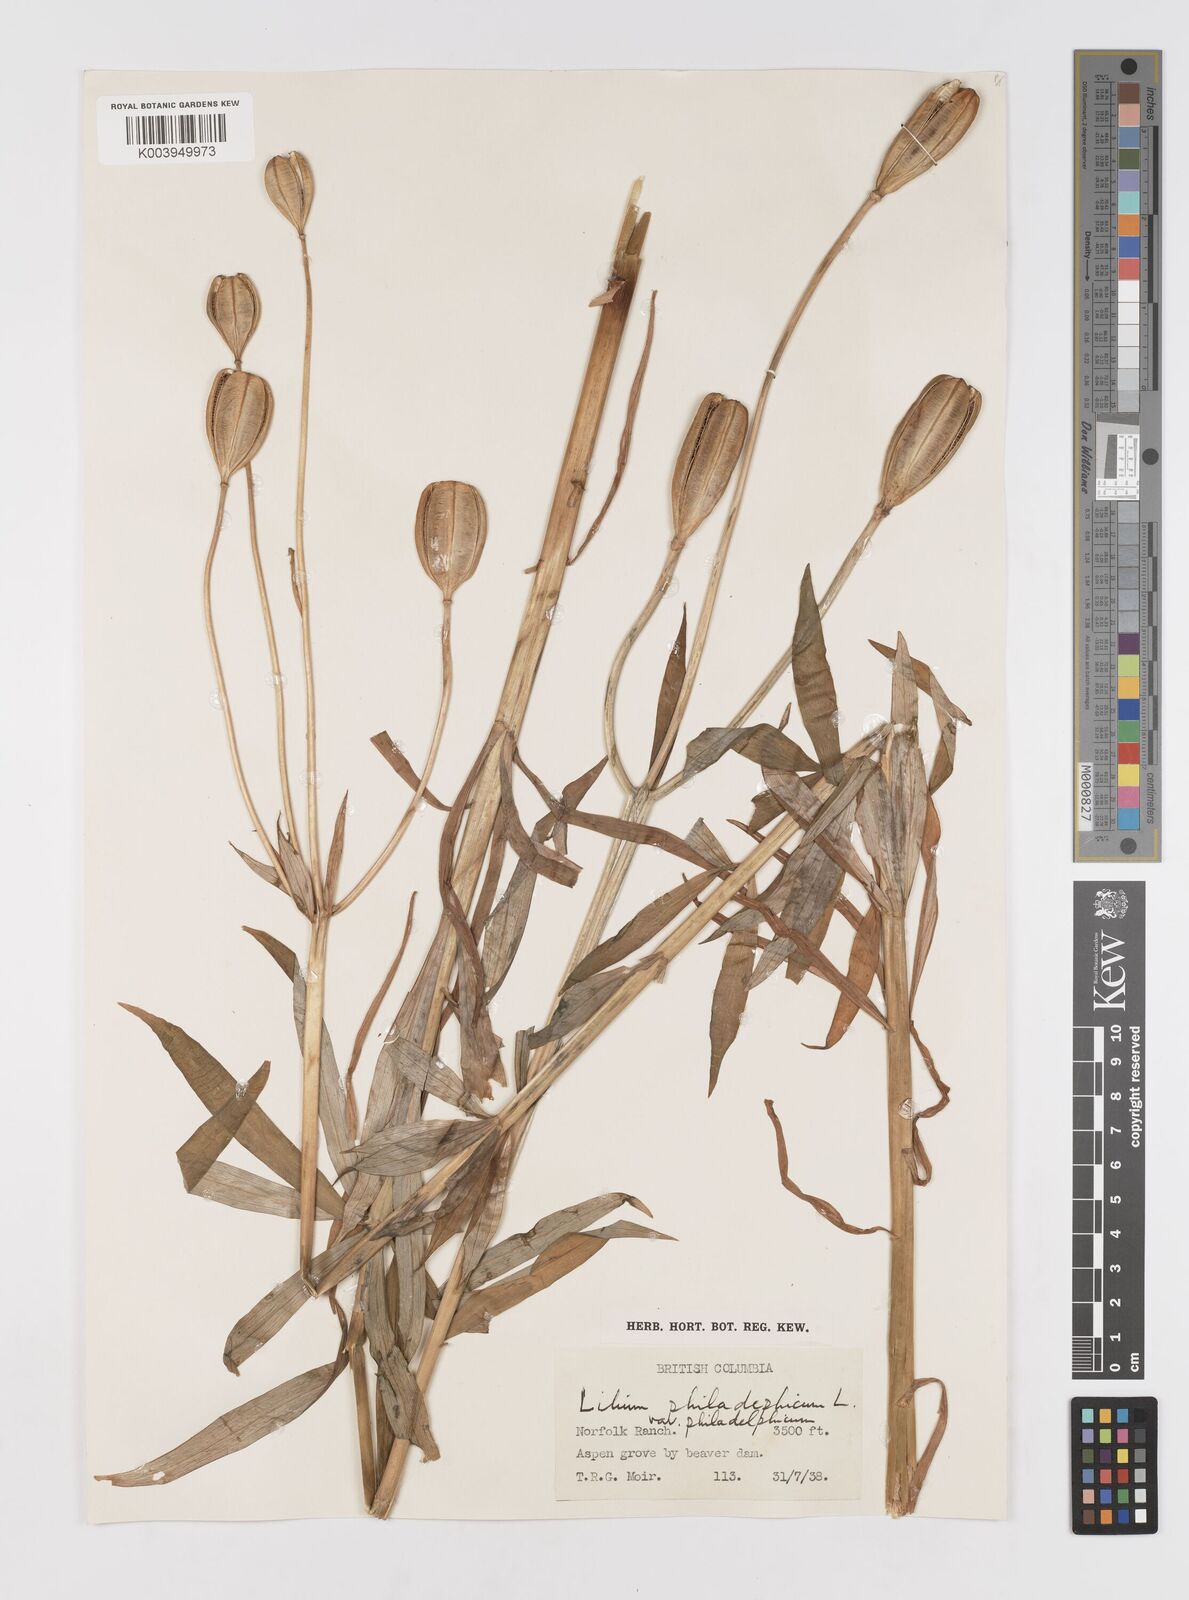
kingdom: Plantae
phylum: Tracheophyta
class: Liliopsida
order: Liliales
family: Liliaceae
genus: Lilium
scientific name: Lilium philadelphicum
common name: Red lily
